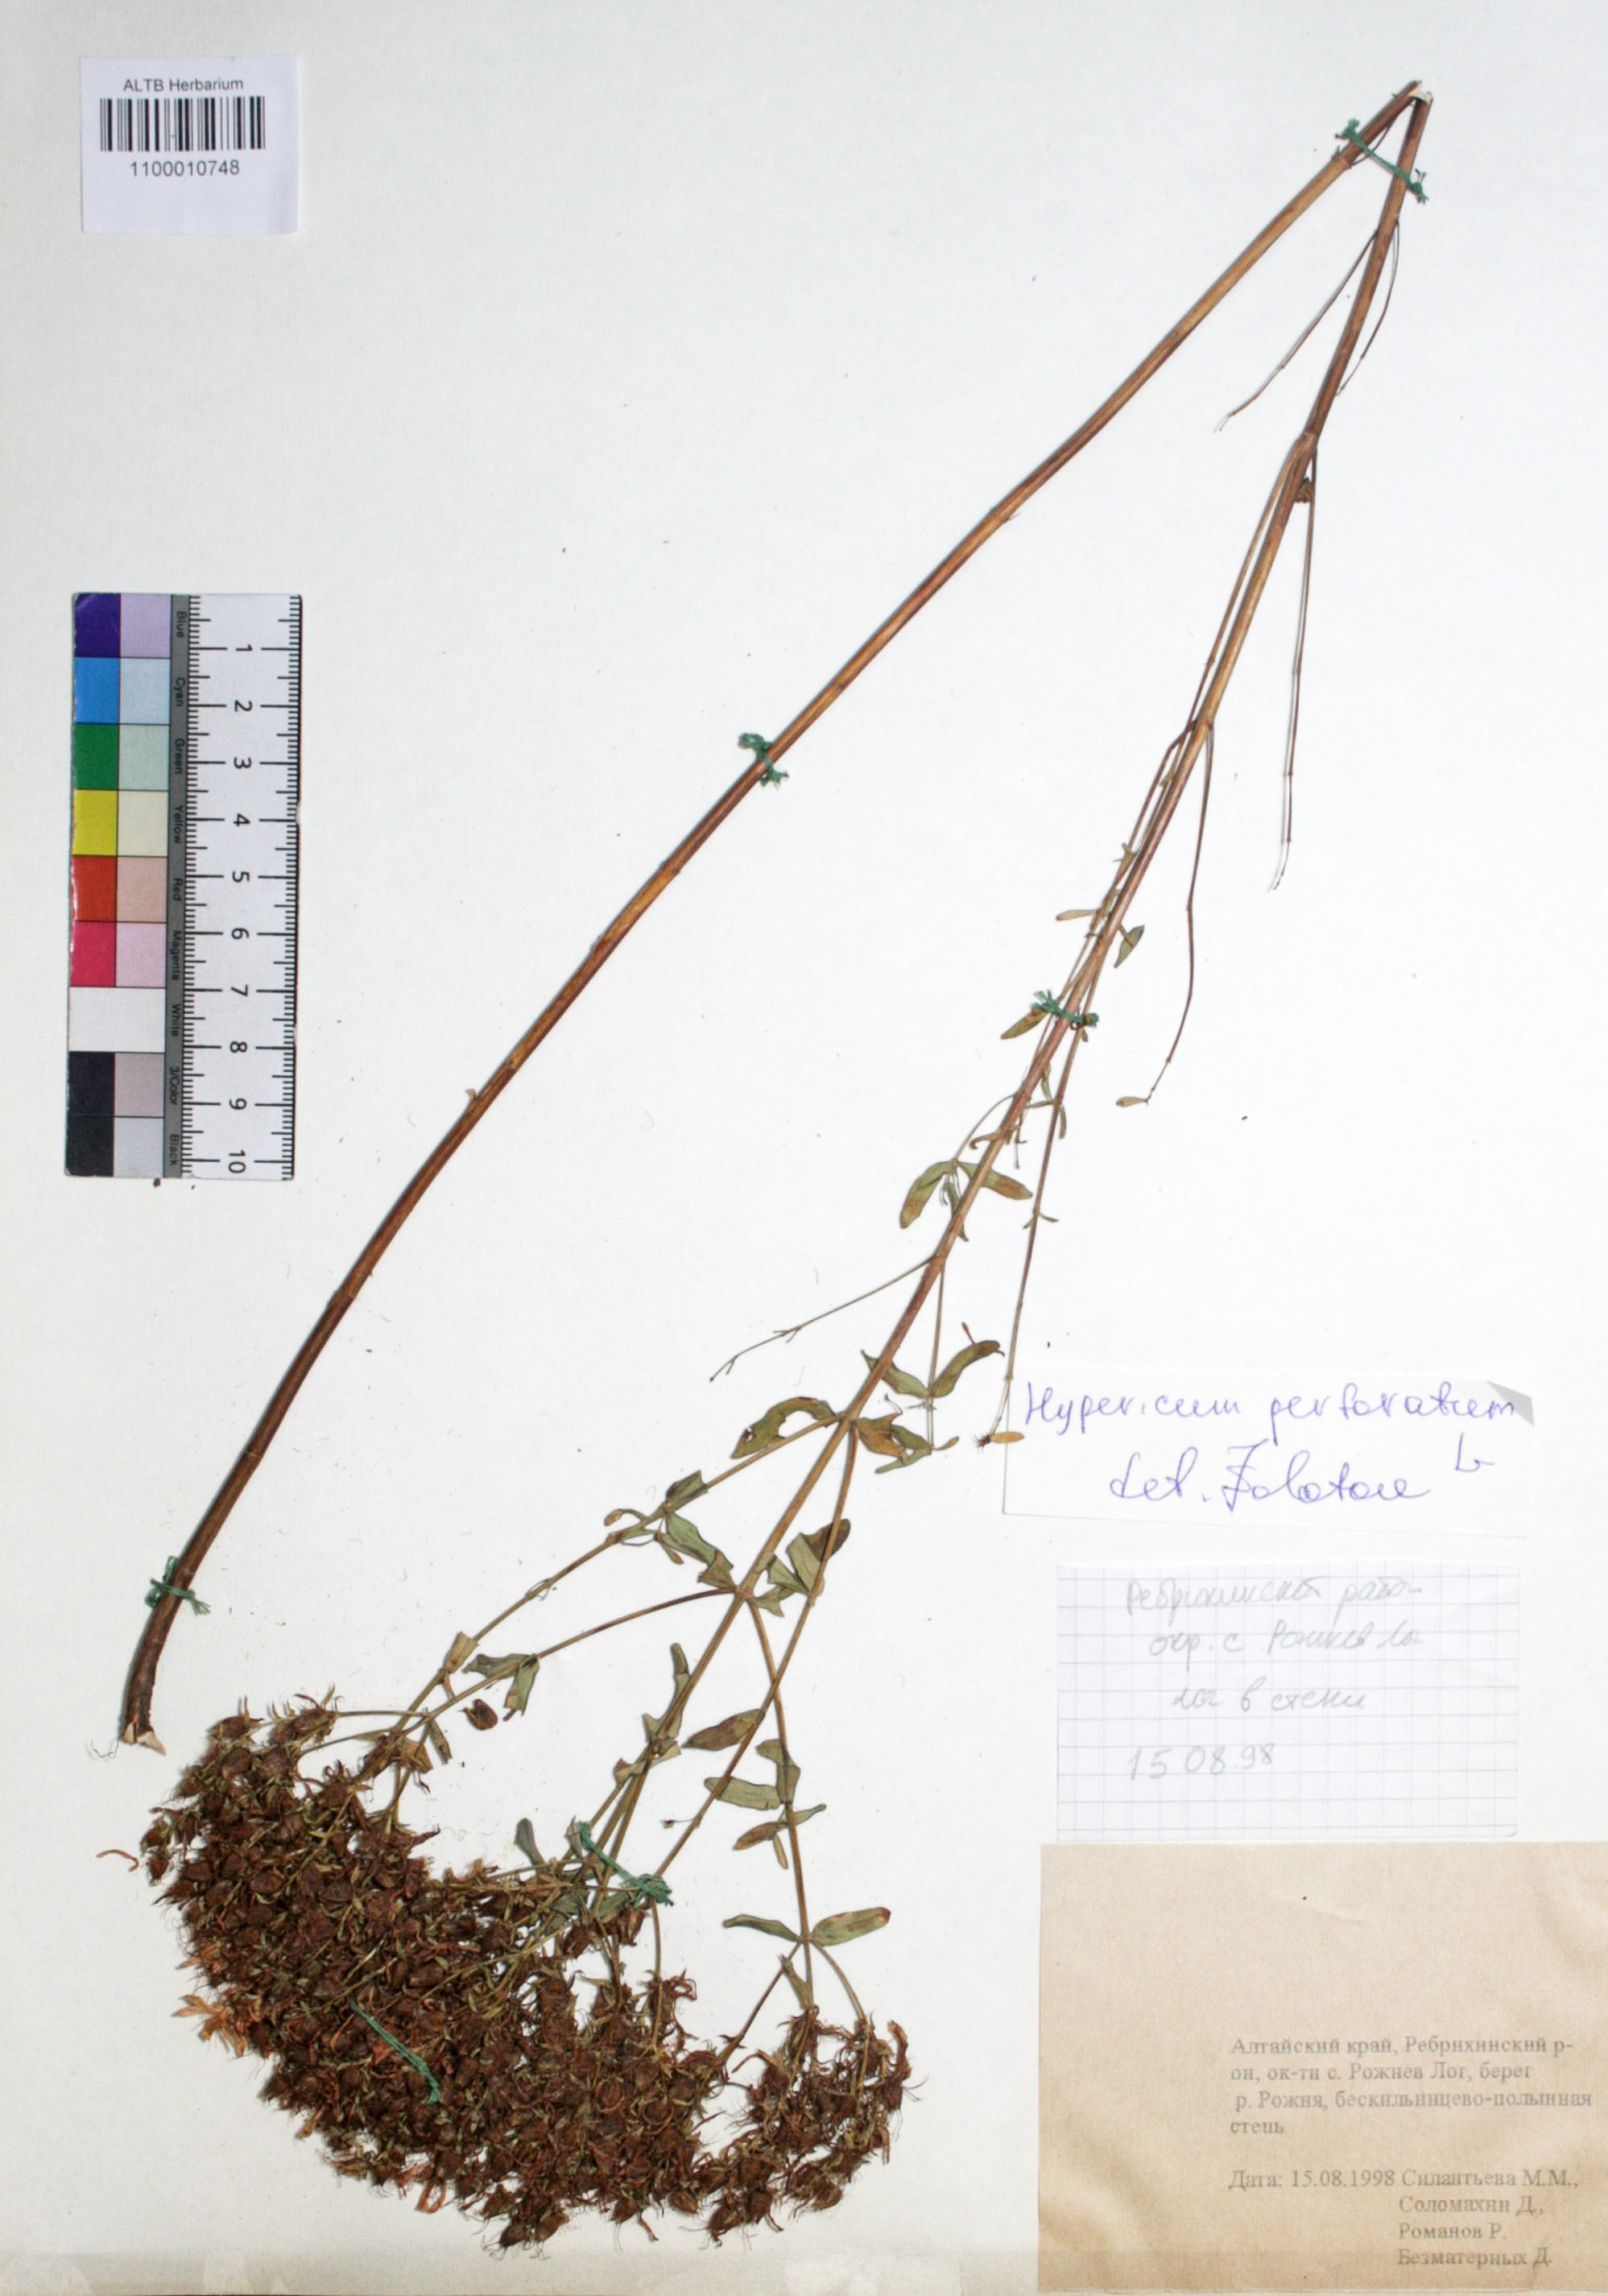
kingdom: Plantae
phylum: Tracheophyta
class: Magnoliopsida
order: Malpighiales
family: Hypericaceae
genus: Hypericum
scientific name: Hypericum perforatum
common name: Common st. johnswort
